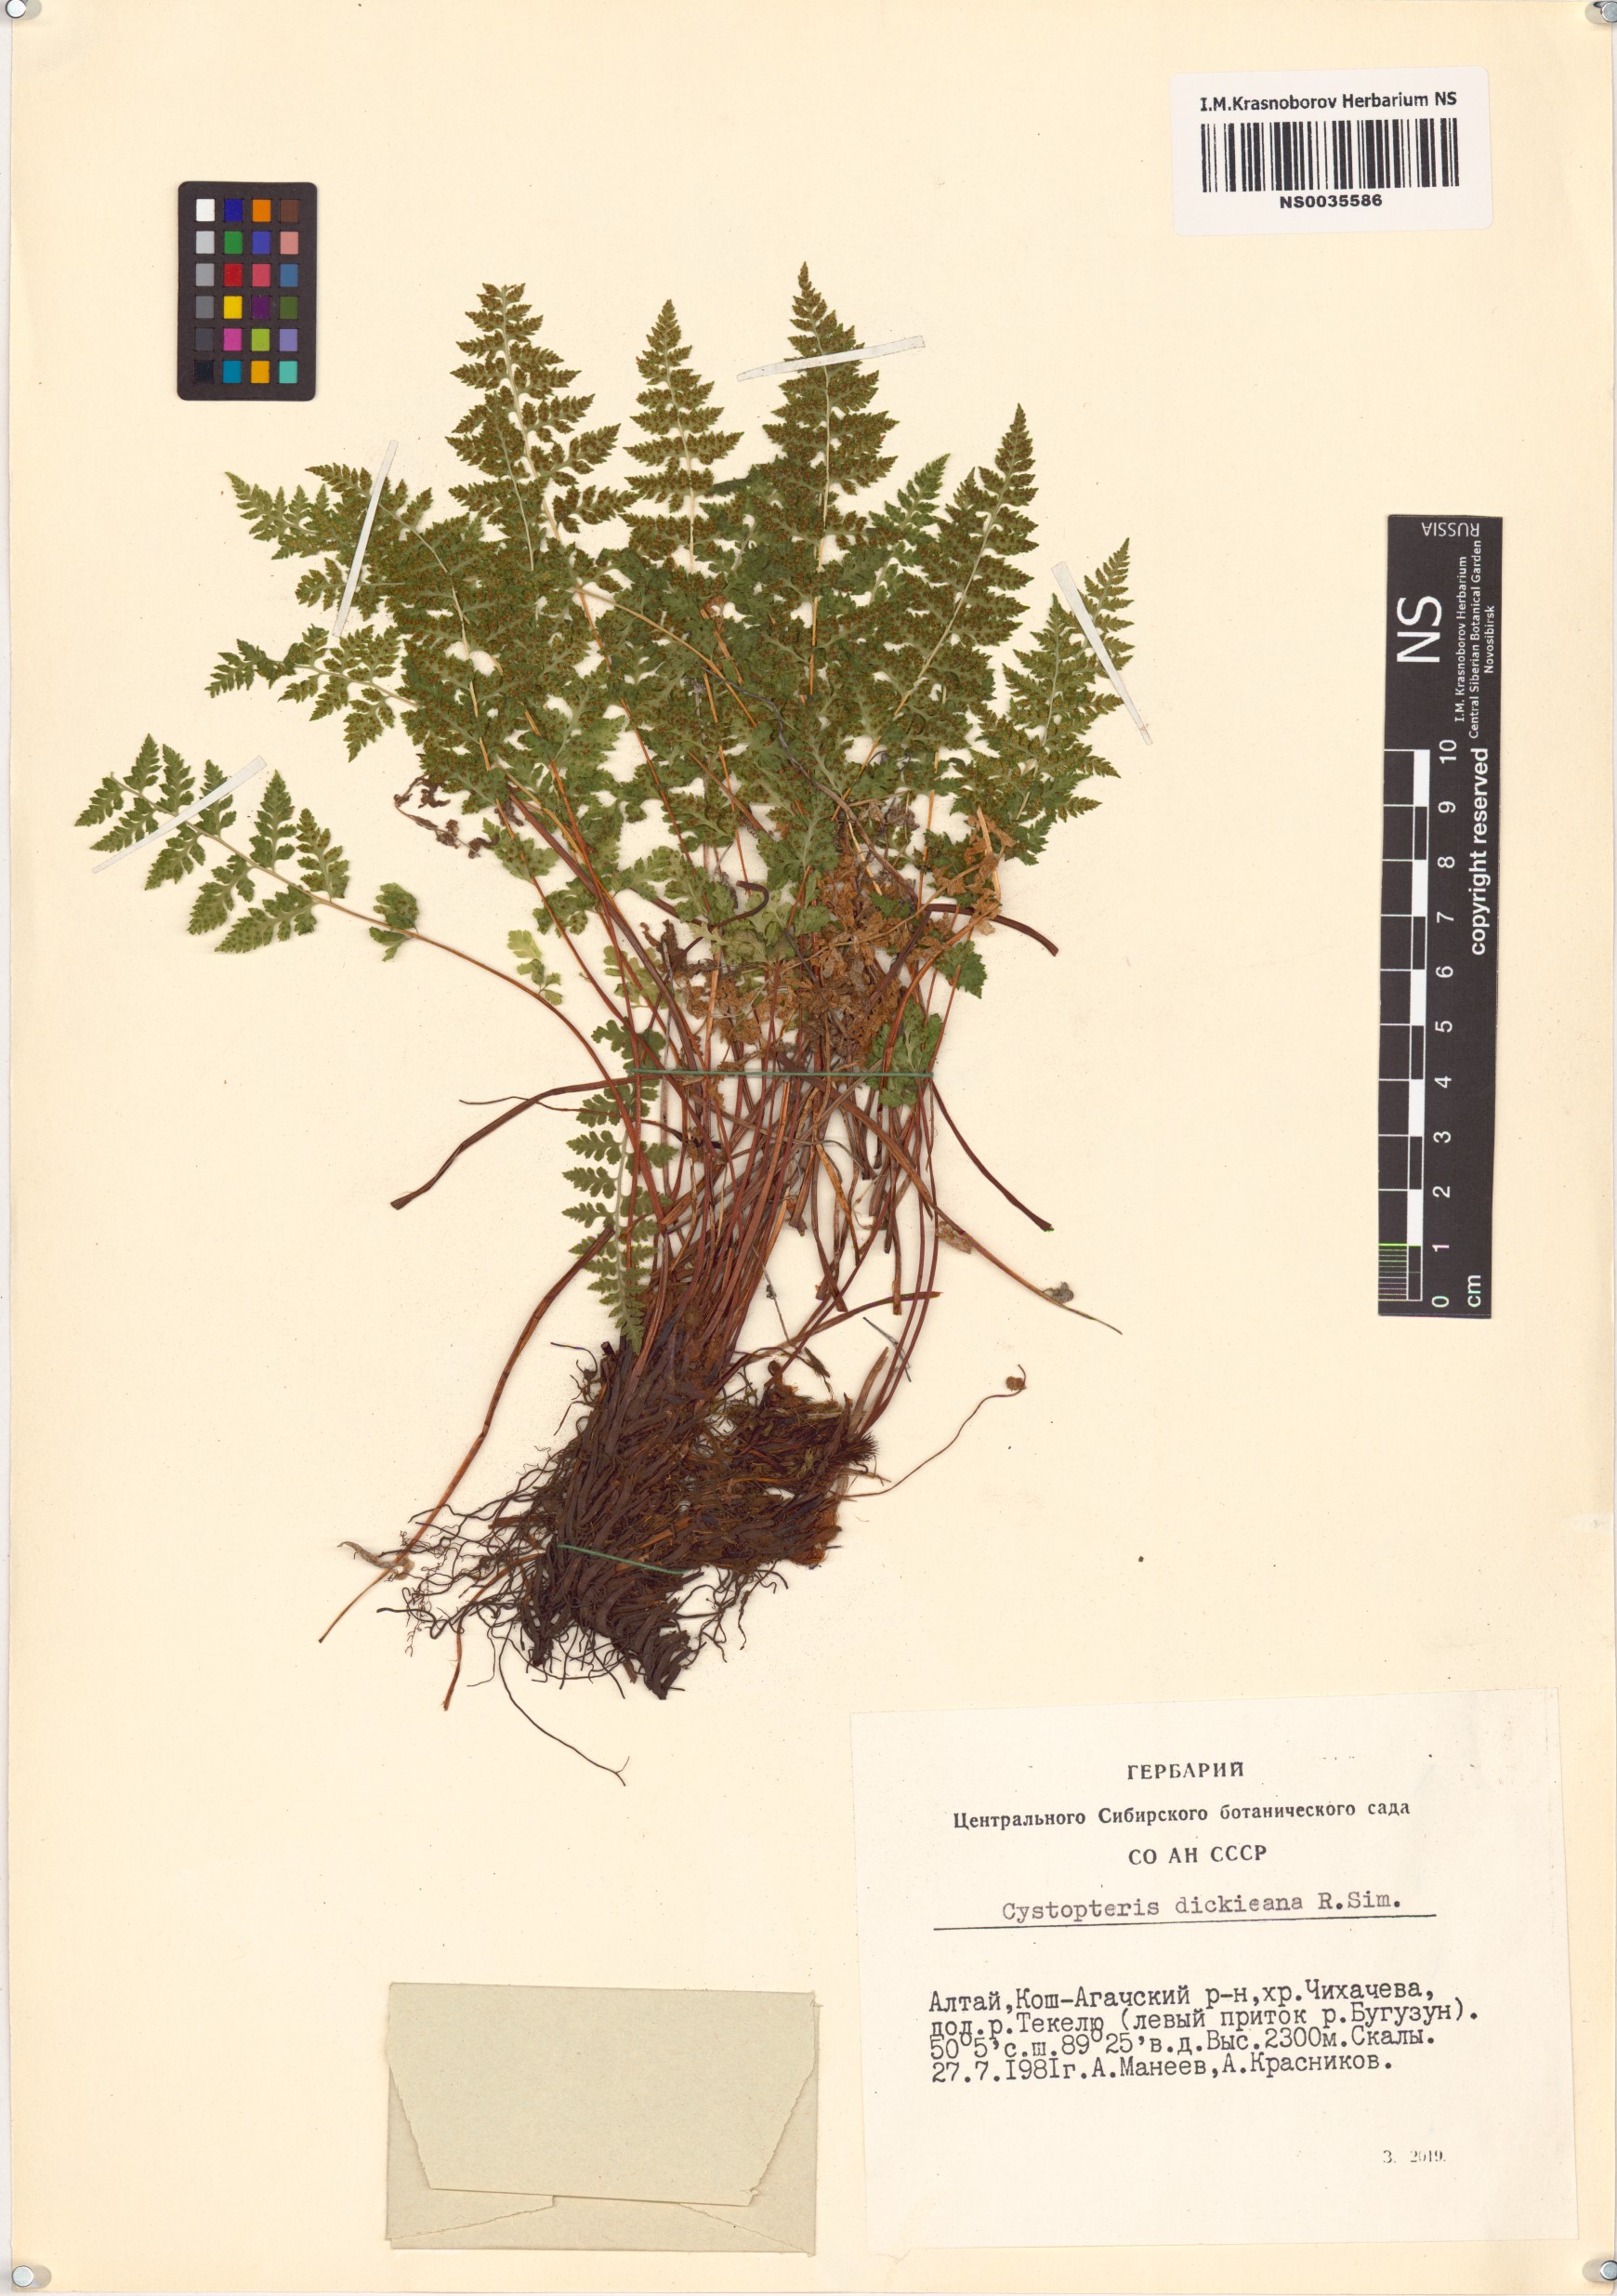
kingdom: Plantae
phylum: Tracheophyta
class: Polypodiopsida
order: Polypodiales
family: Cystopteridaceae
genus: Cystopteris
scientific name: Cystopteris dickieana
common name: Dickie's bladder-fern
